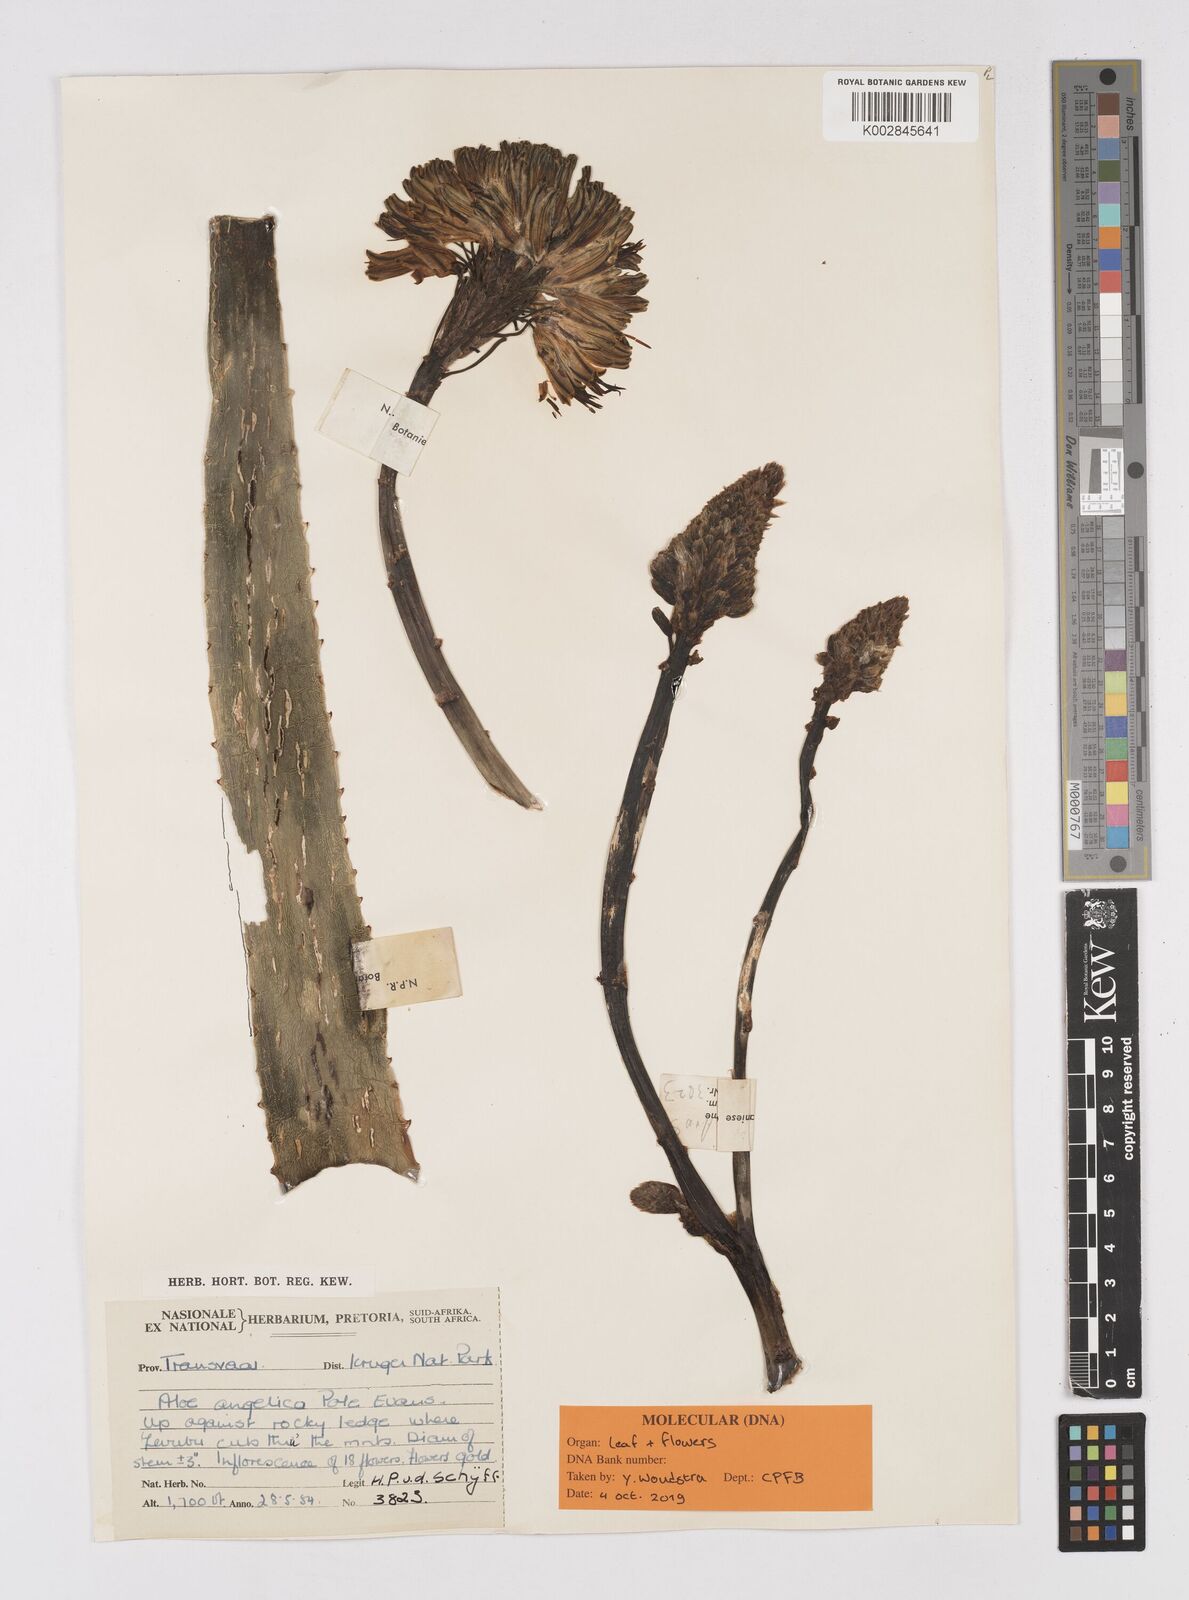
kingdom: Plantae
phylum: Tracheophyta
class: Liliopsida
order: Asparagales
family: Asphodelaceae
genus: Aloe
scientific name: Aloe angelica
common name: Wylliespoort aloe
